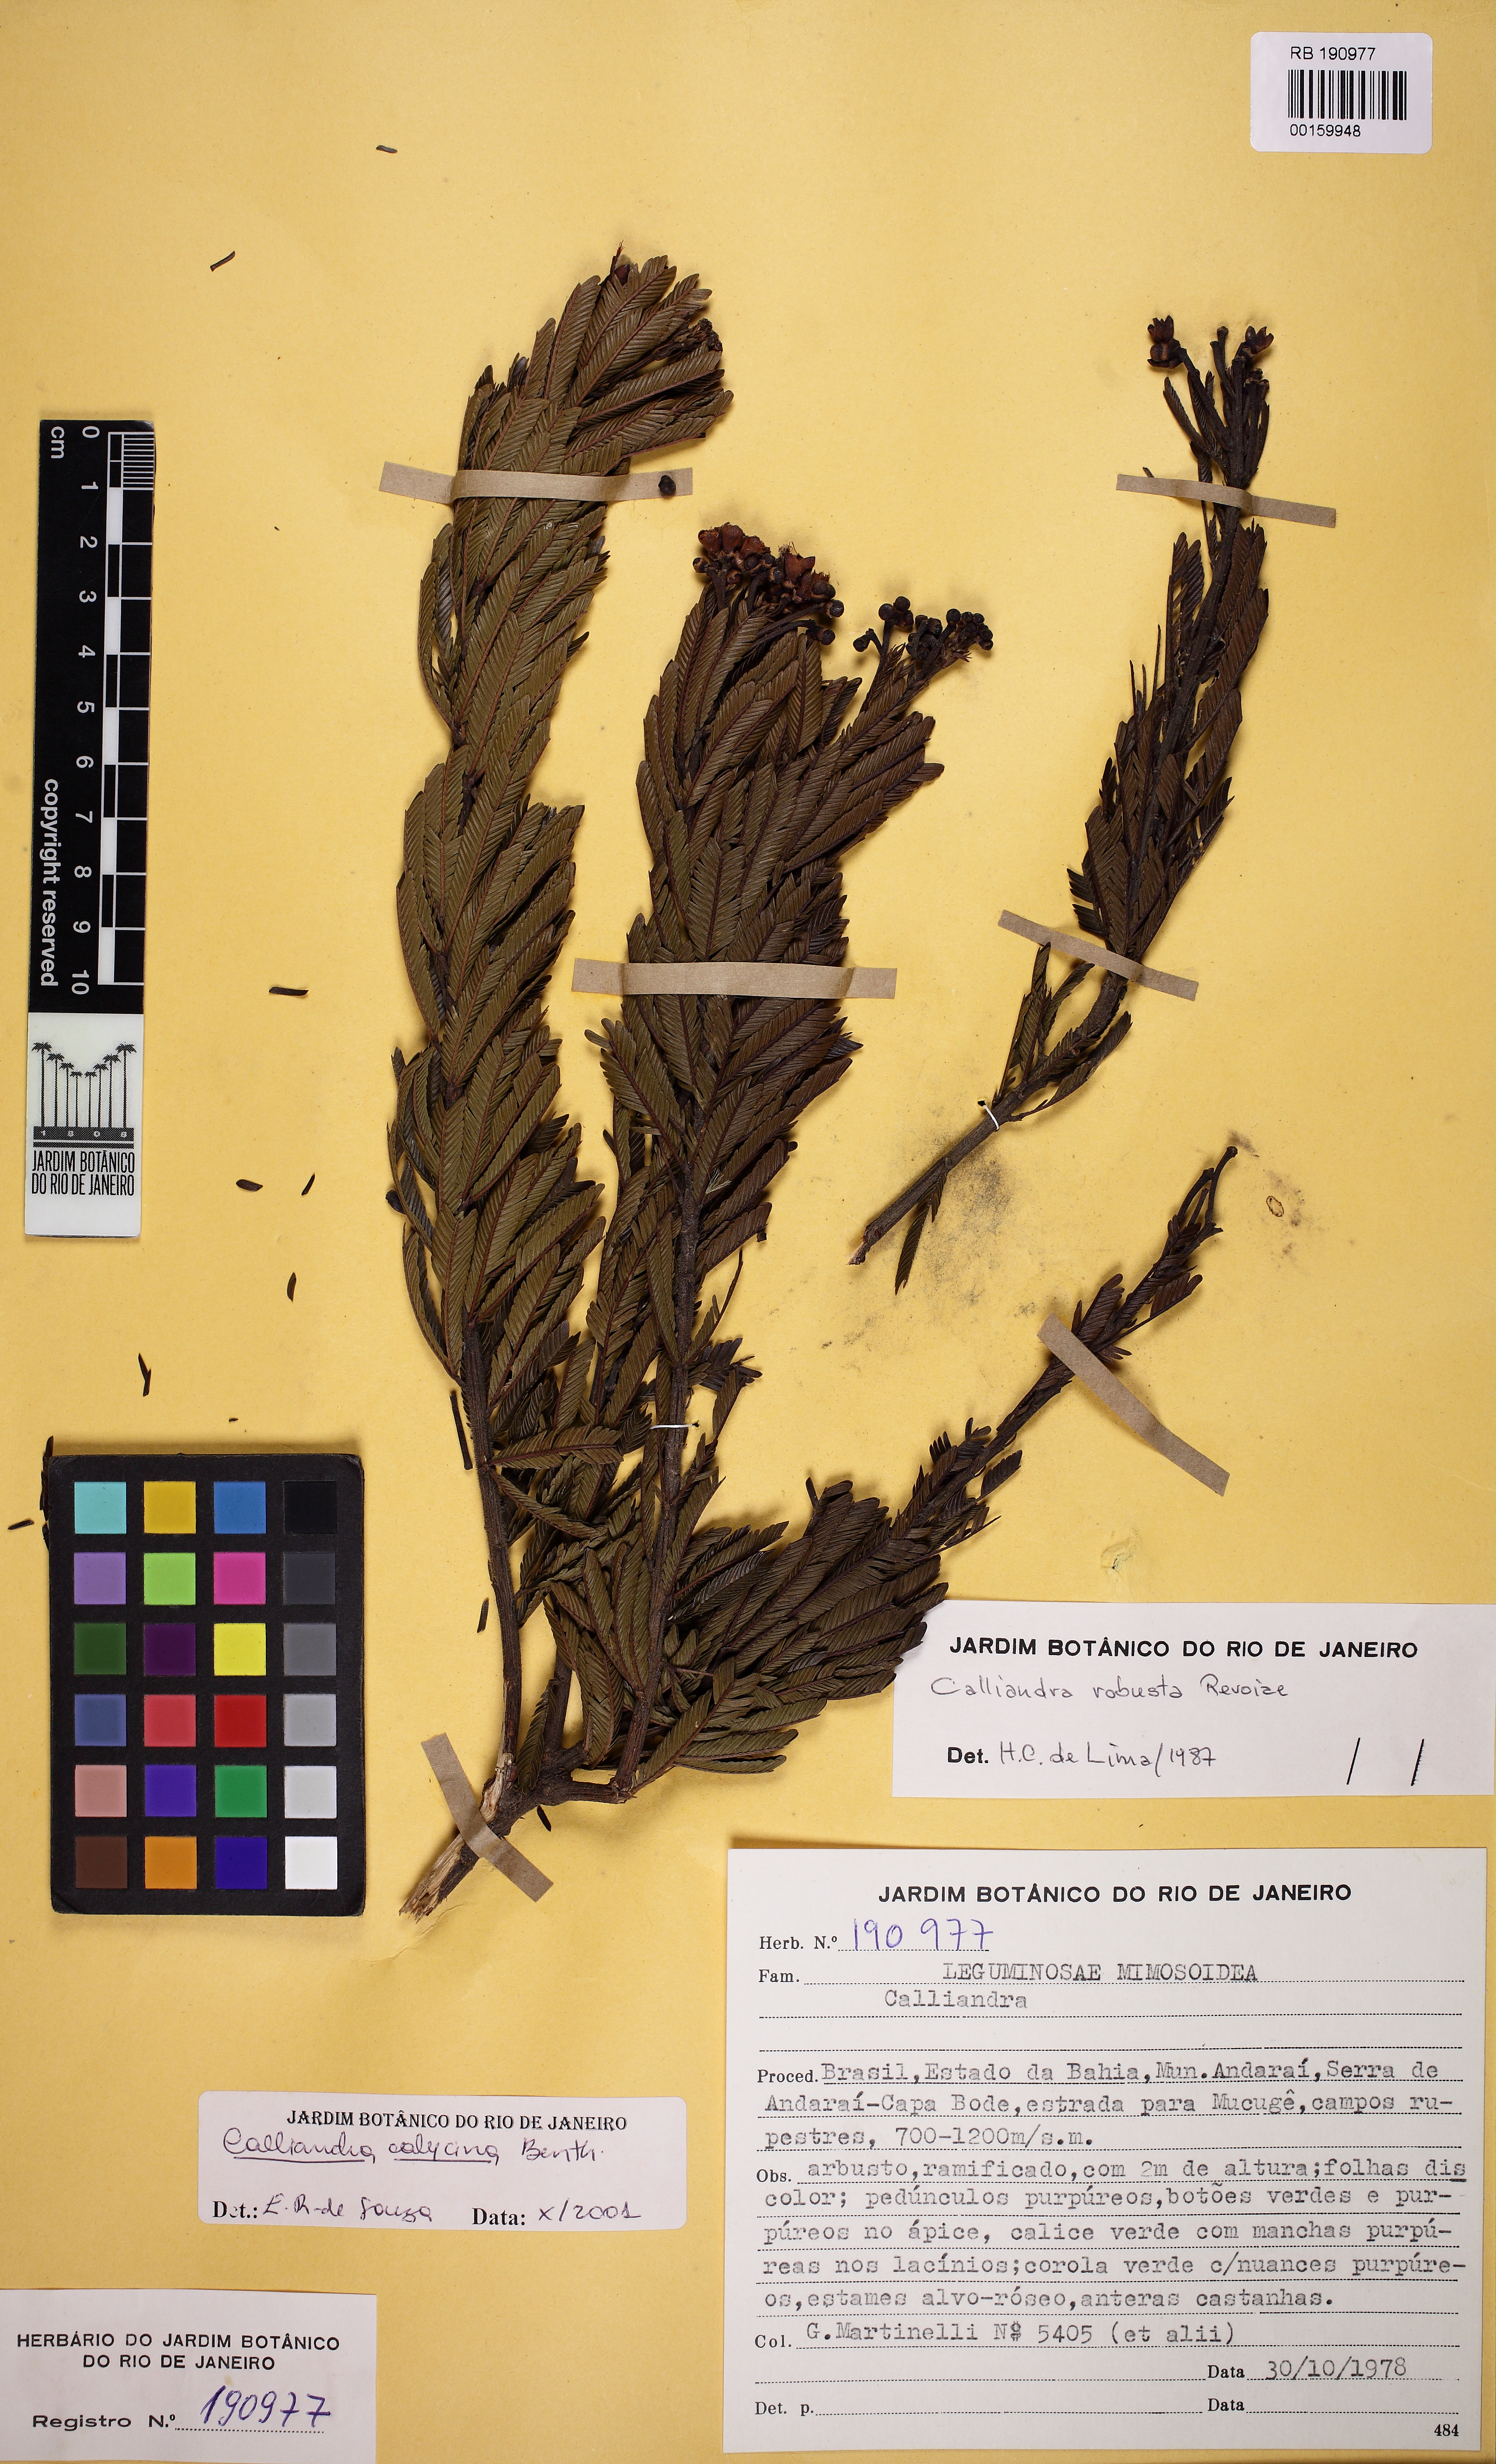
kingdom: Plantae
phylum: Tracheophyta
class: Magnoliopsida
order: Fabales
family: Fabaceae
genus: Calliandra
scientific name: Calliandra calycina
